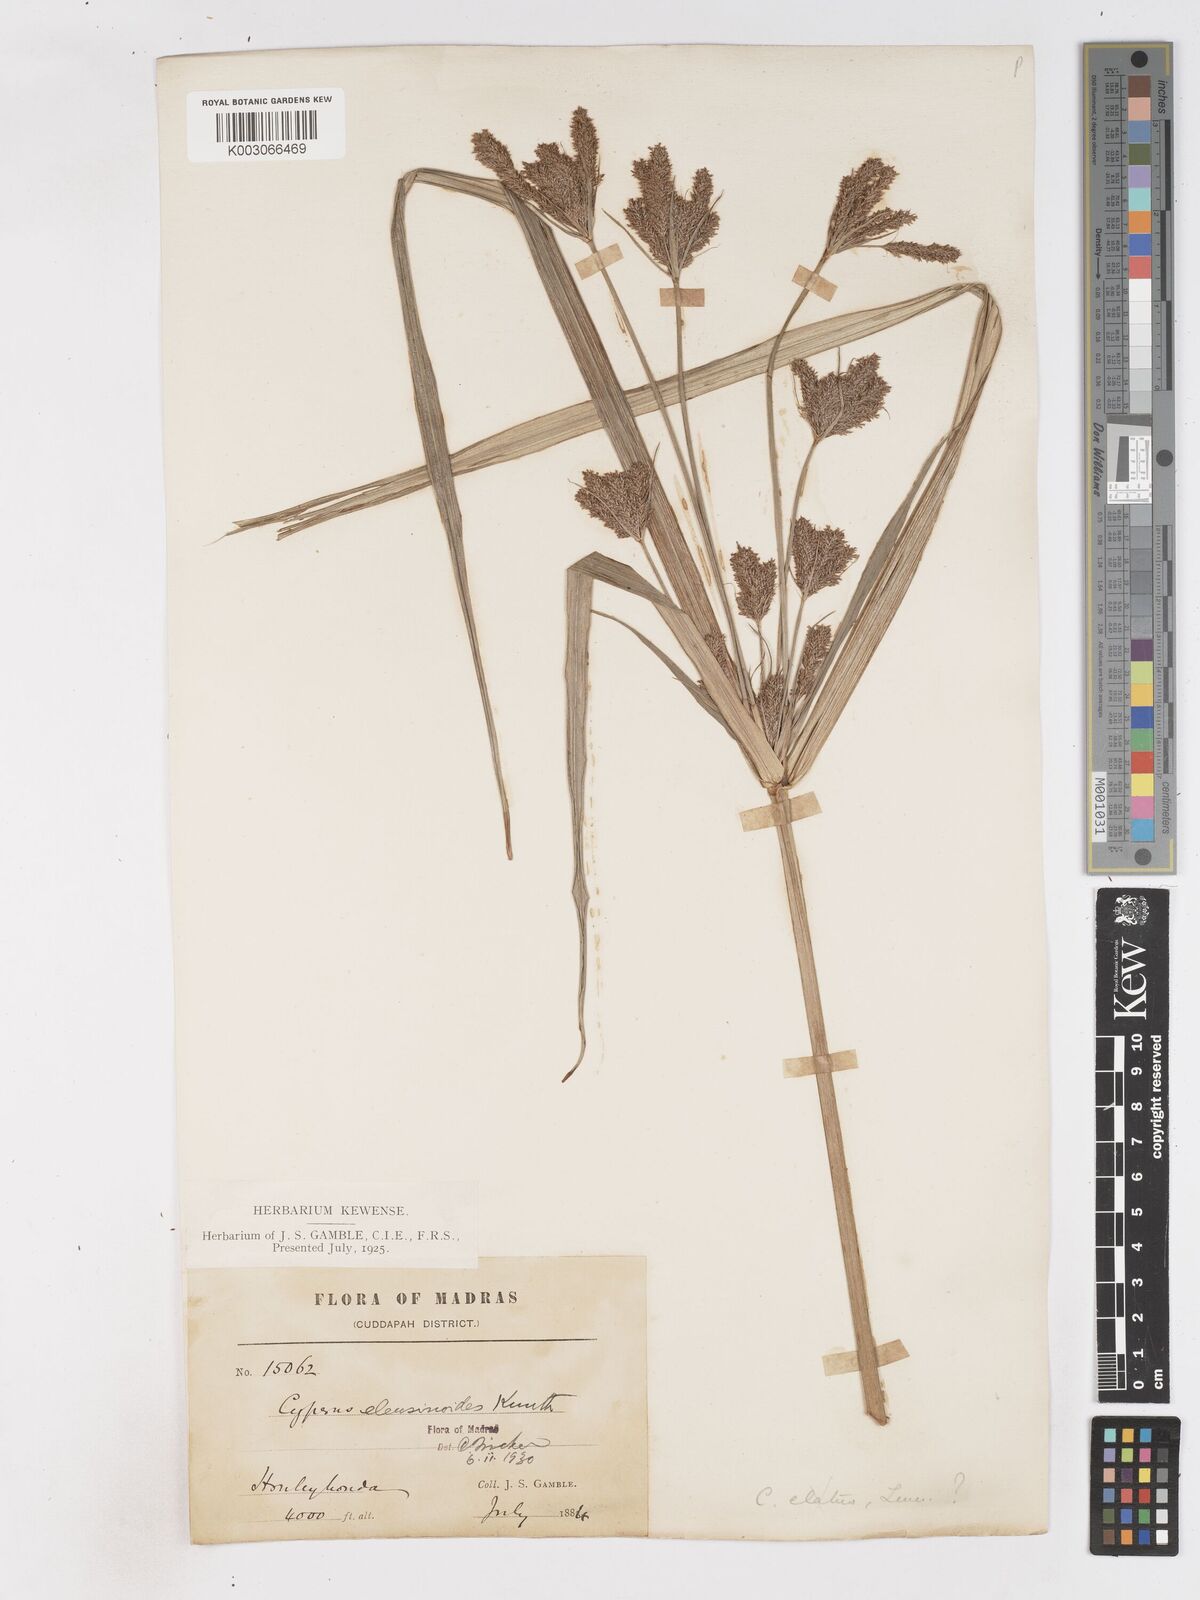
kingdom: Plantae
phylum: Tracheophyta
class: Liliopsida
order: Poales
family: Cyperaceae
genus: Cyperus
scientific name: Cyperus nutans
